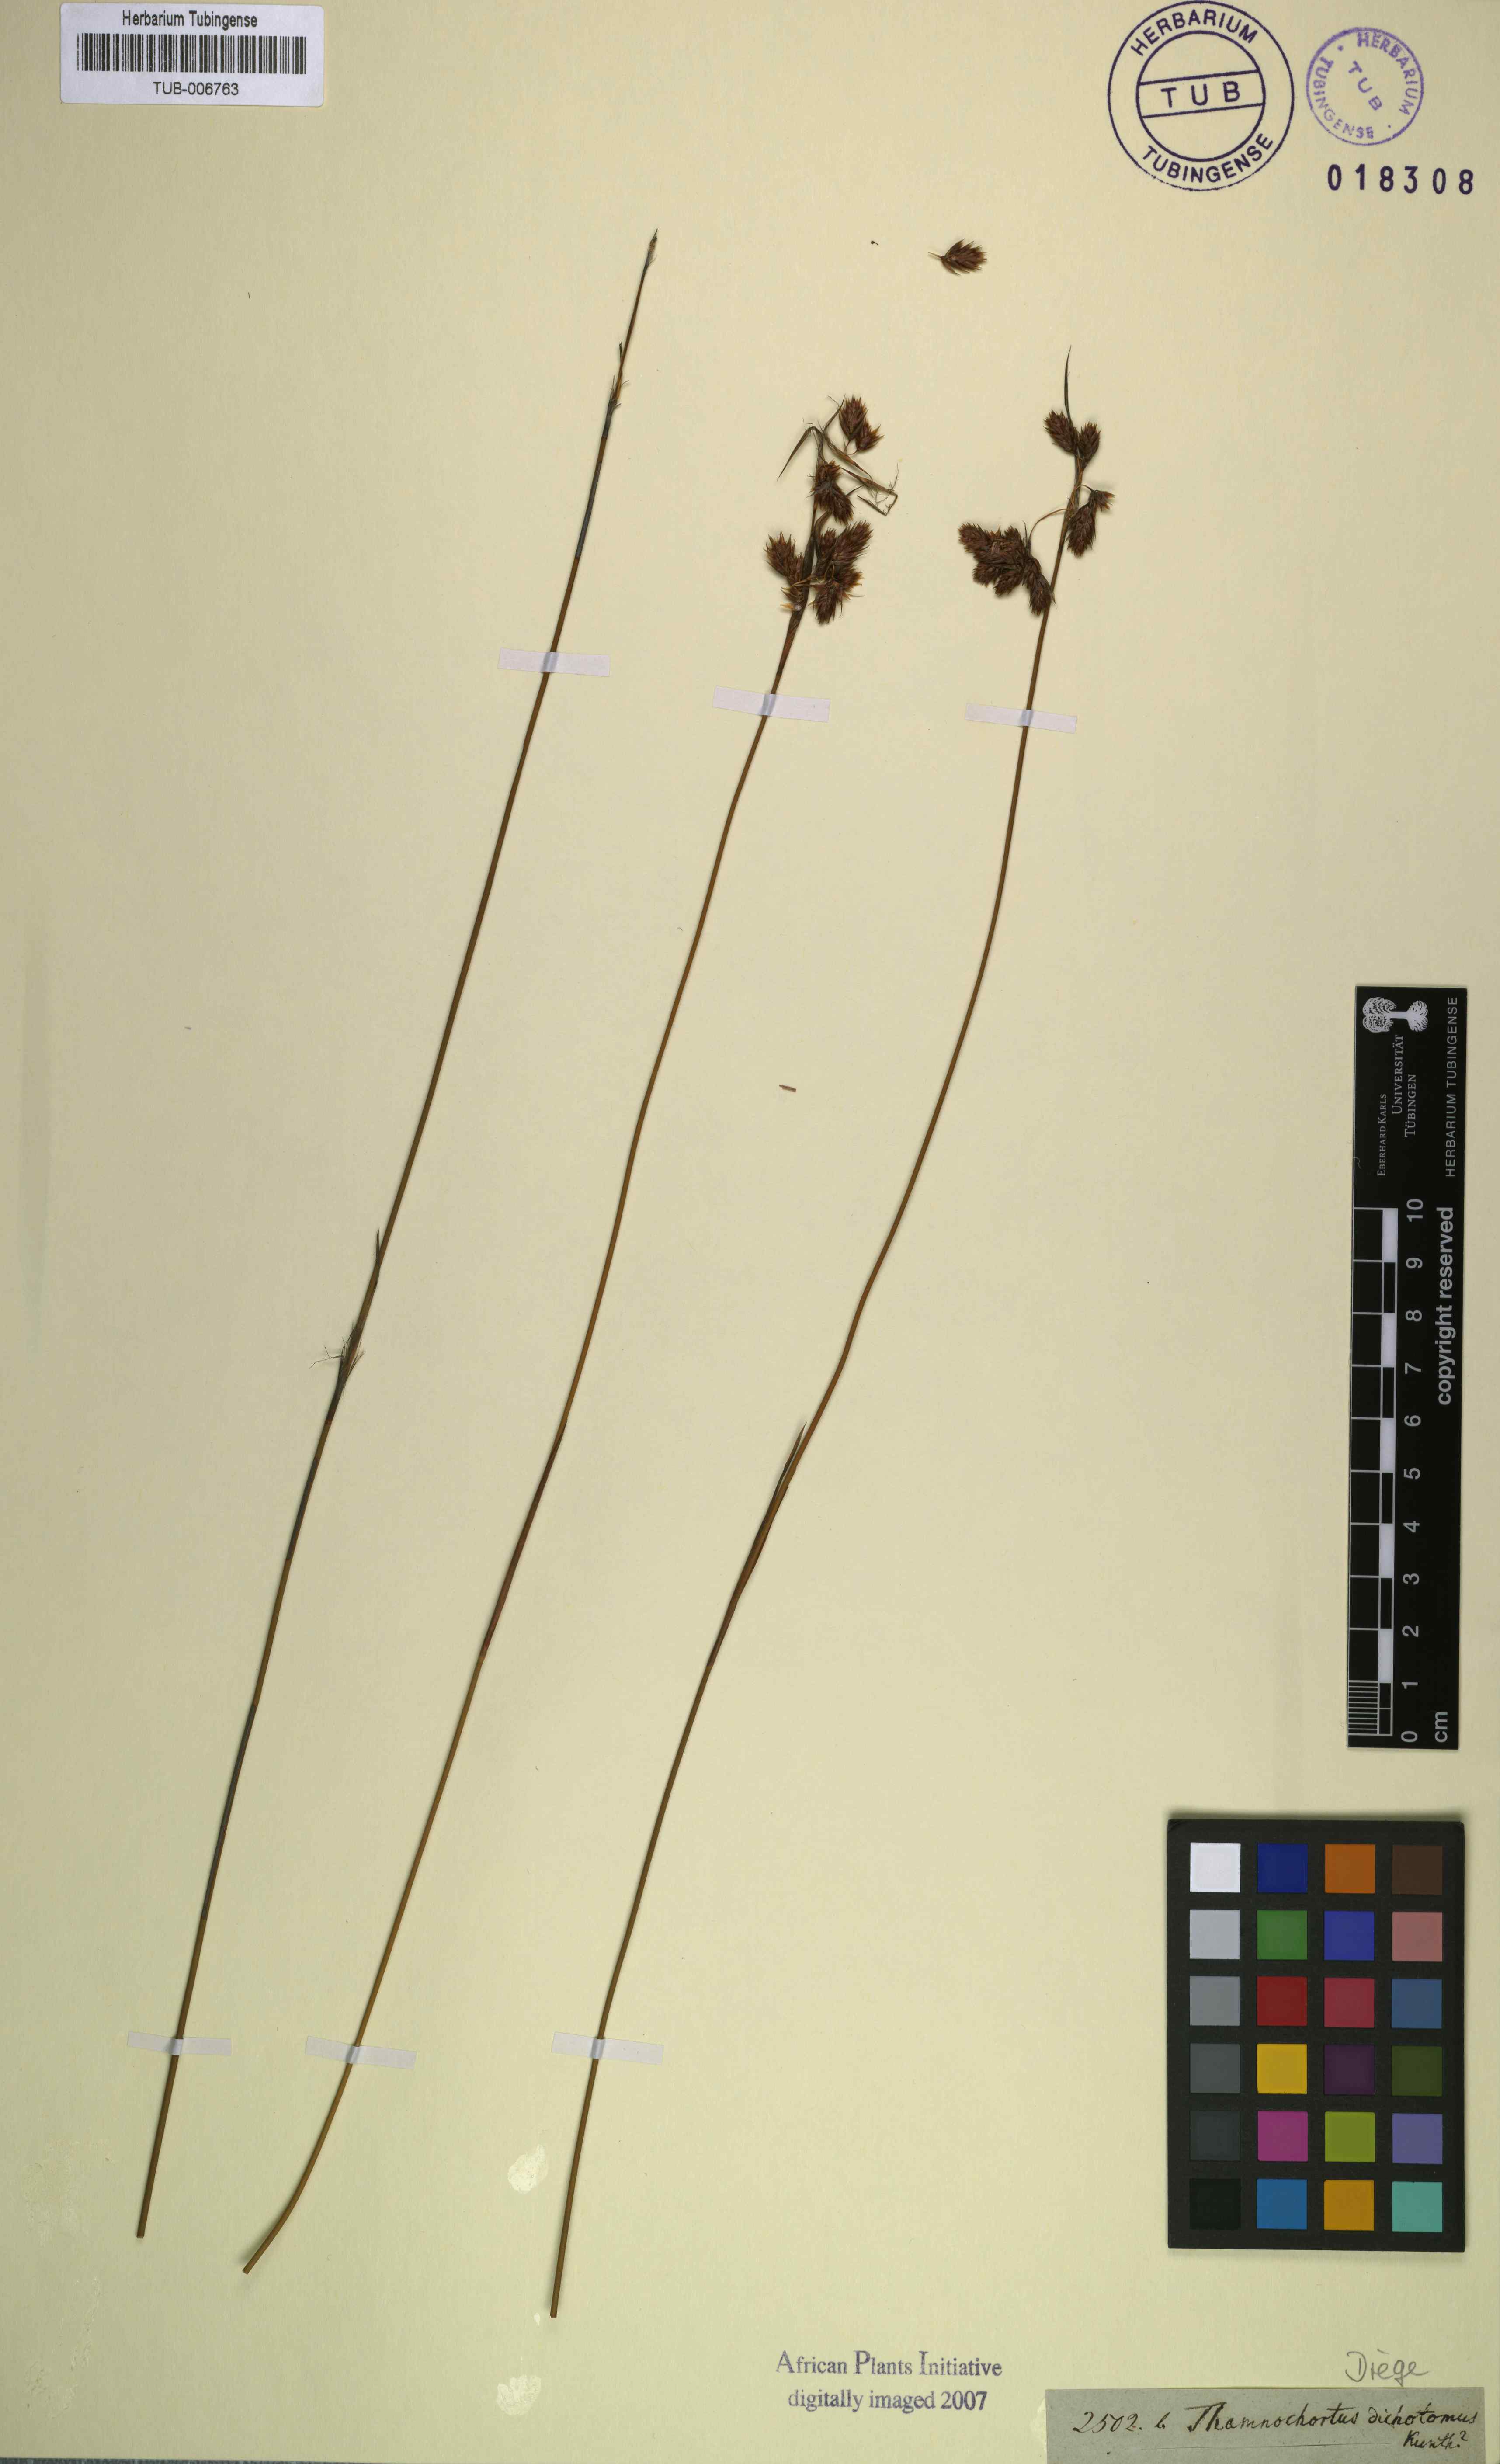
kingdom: Plantae
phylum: Tracheophyta
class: Liliopsida
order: Poales
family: Restionaceae
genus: Thamnochortus
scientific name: Thamnochortus dichotomus
